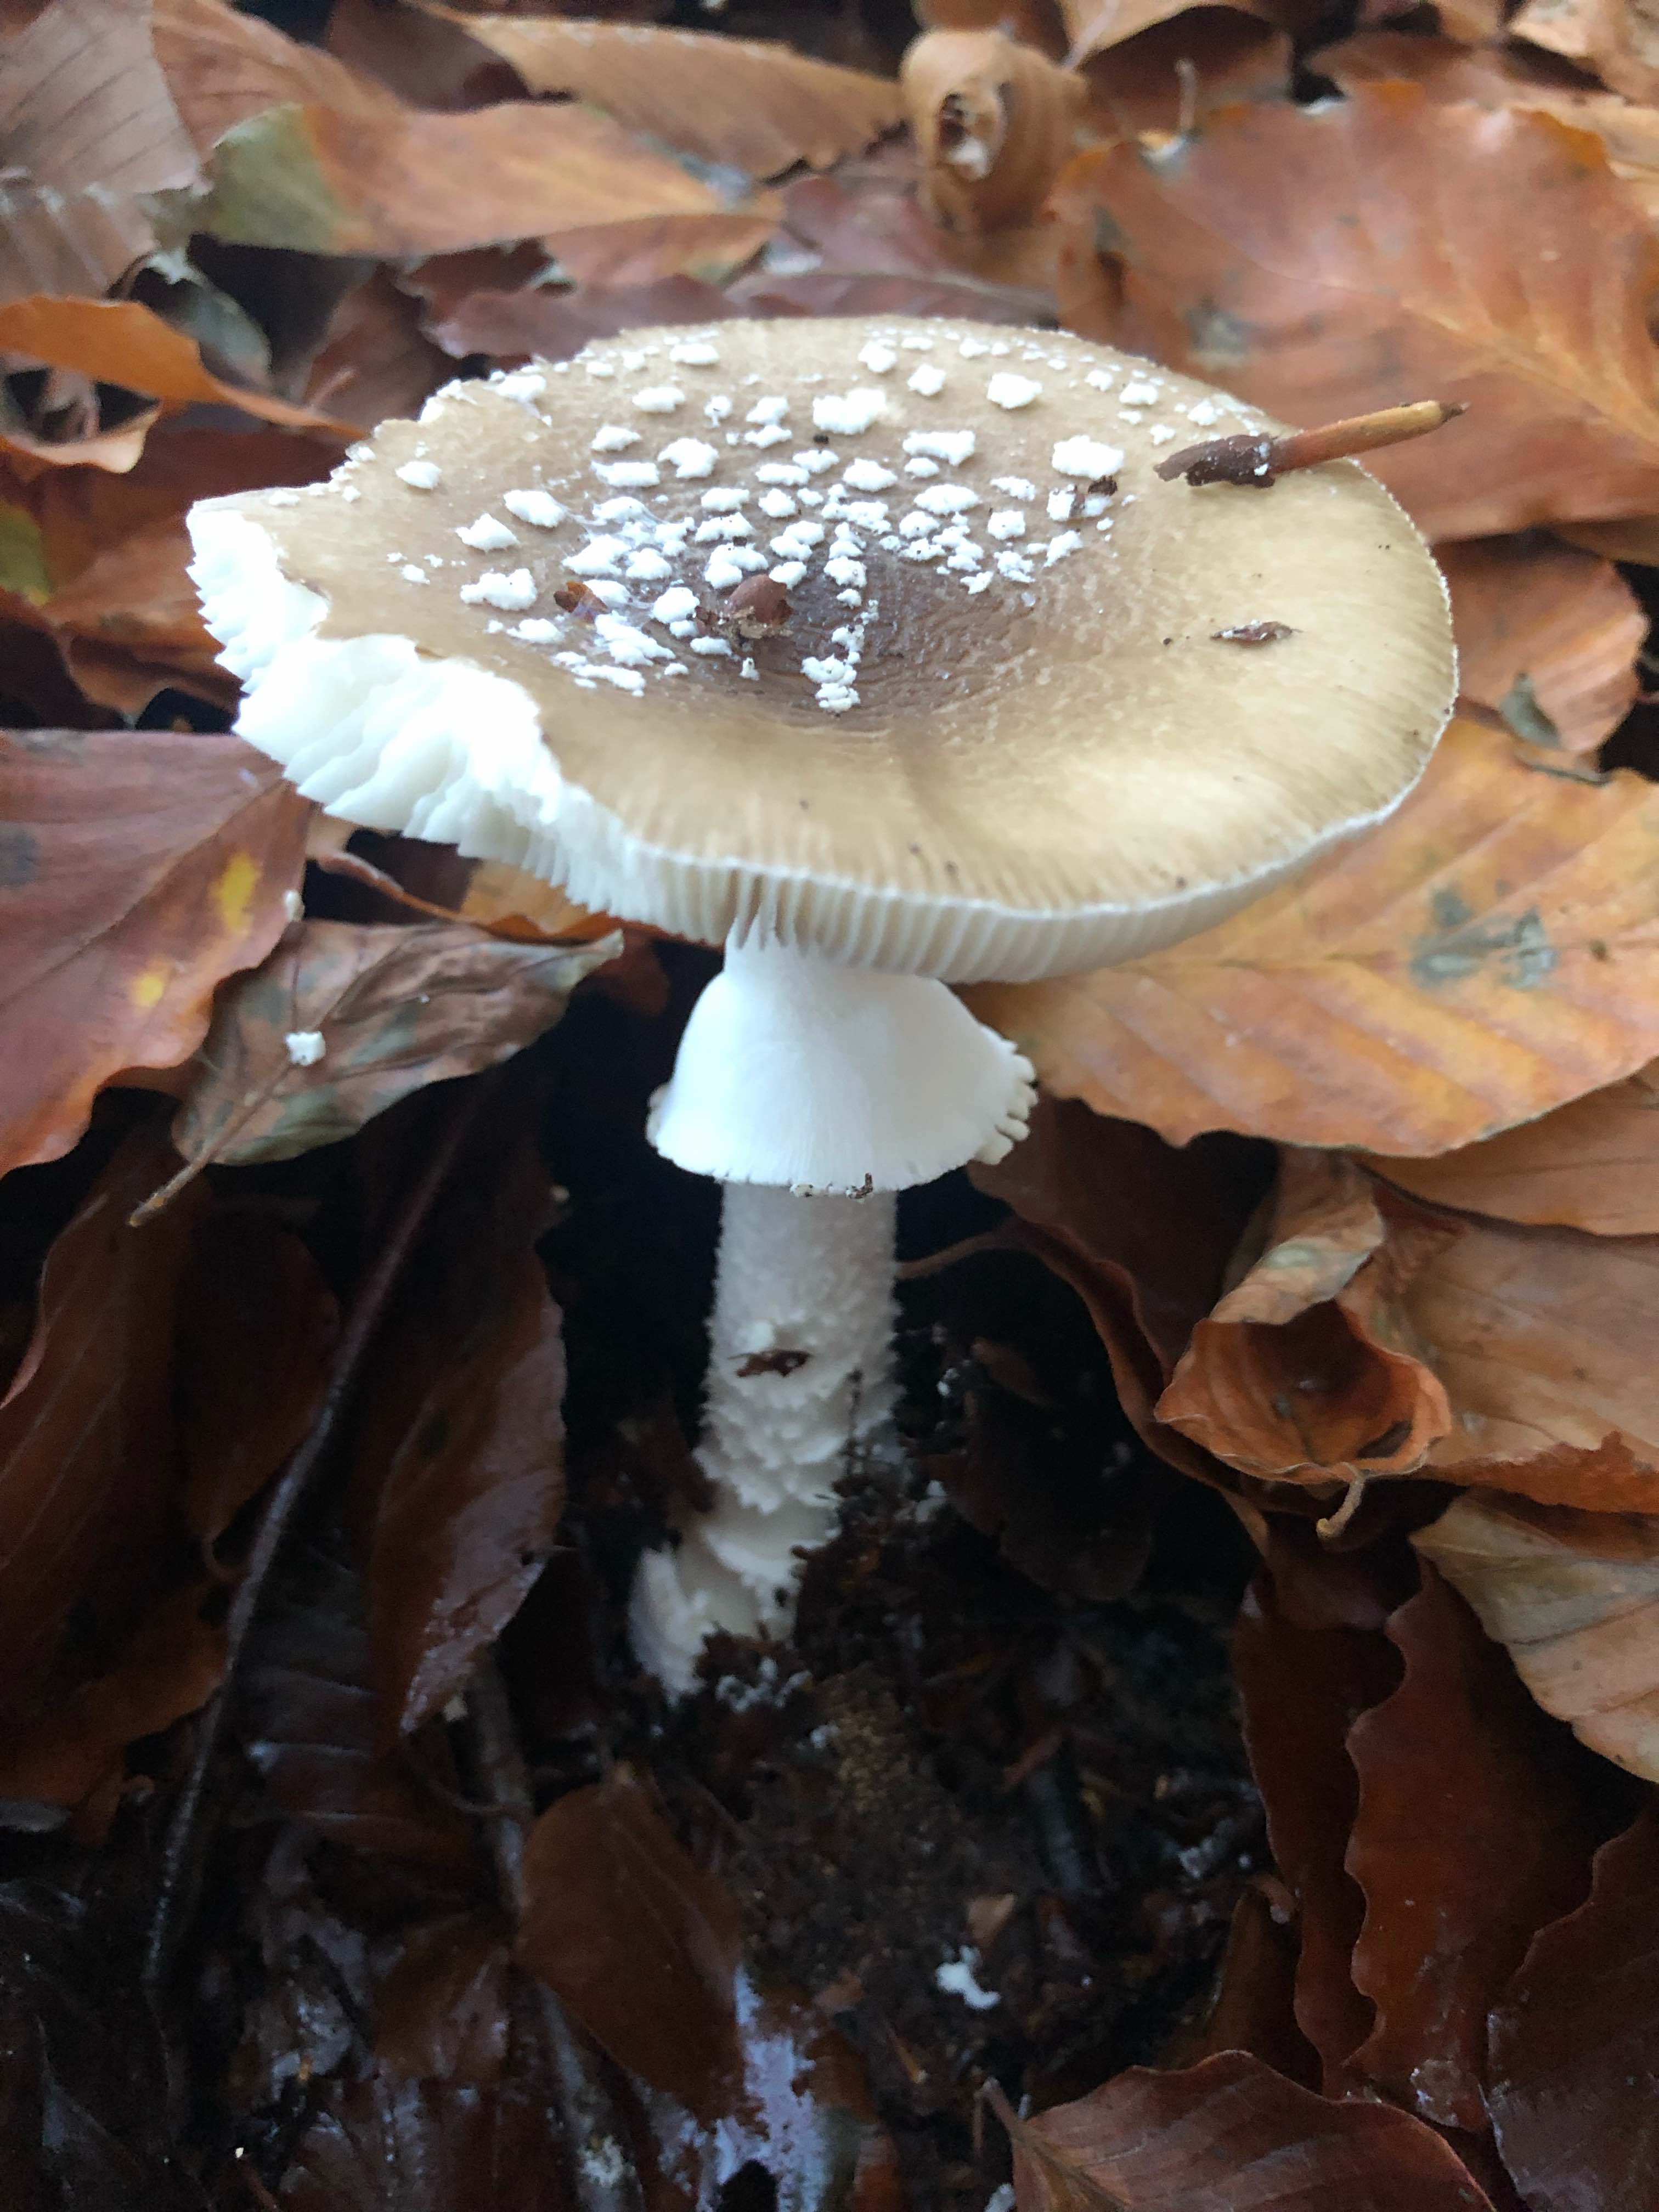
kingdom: Fungi
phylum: Basidiomycota
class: Agaricomycetes
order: Agaricales
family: Amanitaceae
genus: Amanita
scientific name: Amanita pantherina
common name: panter-fluesvamp
